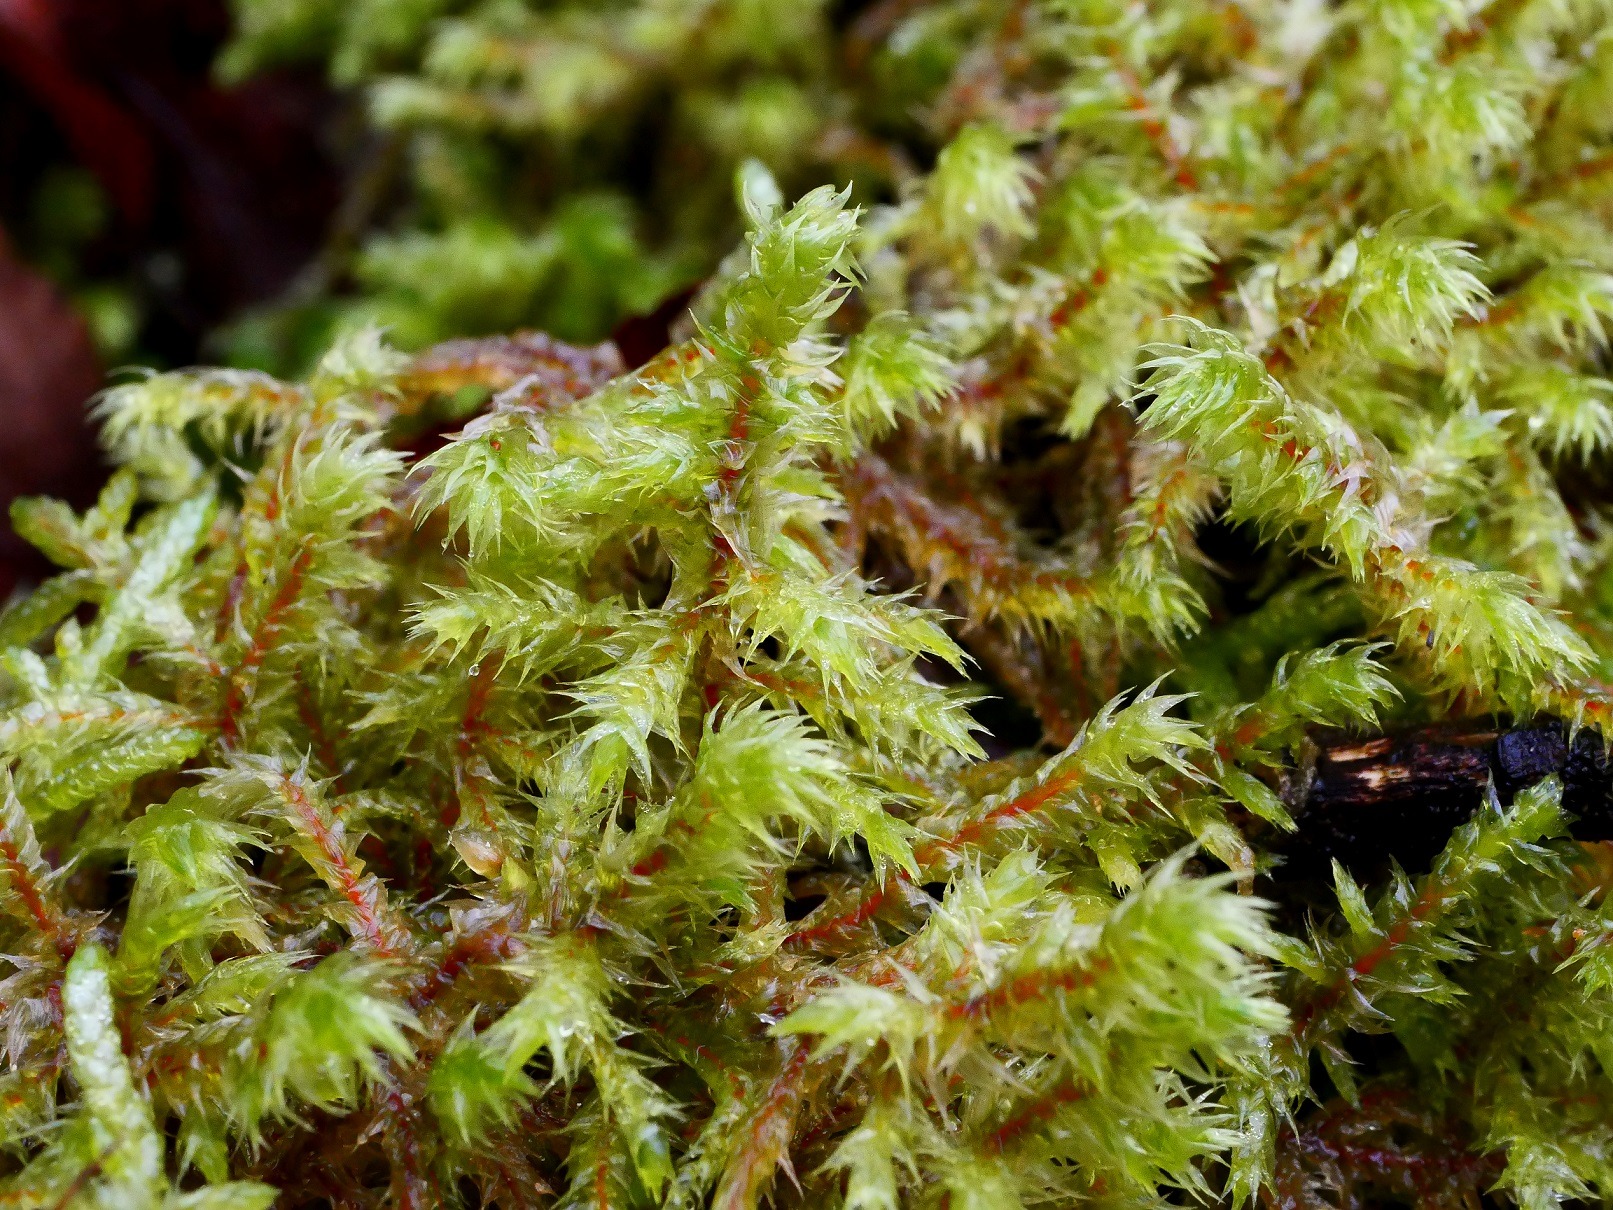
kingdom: Plantae
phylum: Bryophyta
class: Bryopsida
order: Hypnales
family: Hylocomiaceae
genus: Hylocomiadelphus
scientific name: Hylocomiadelphus triquetrus
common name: Stor kransemos
